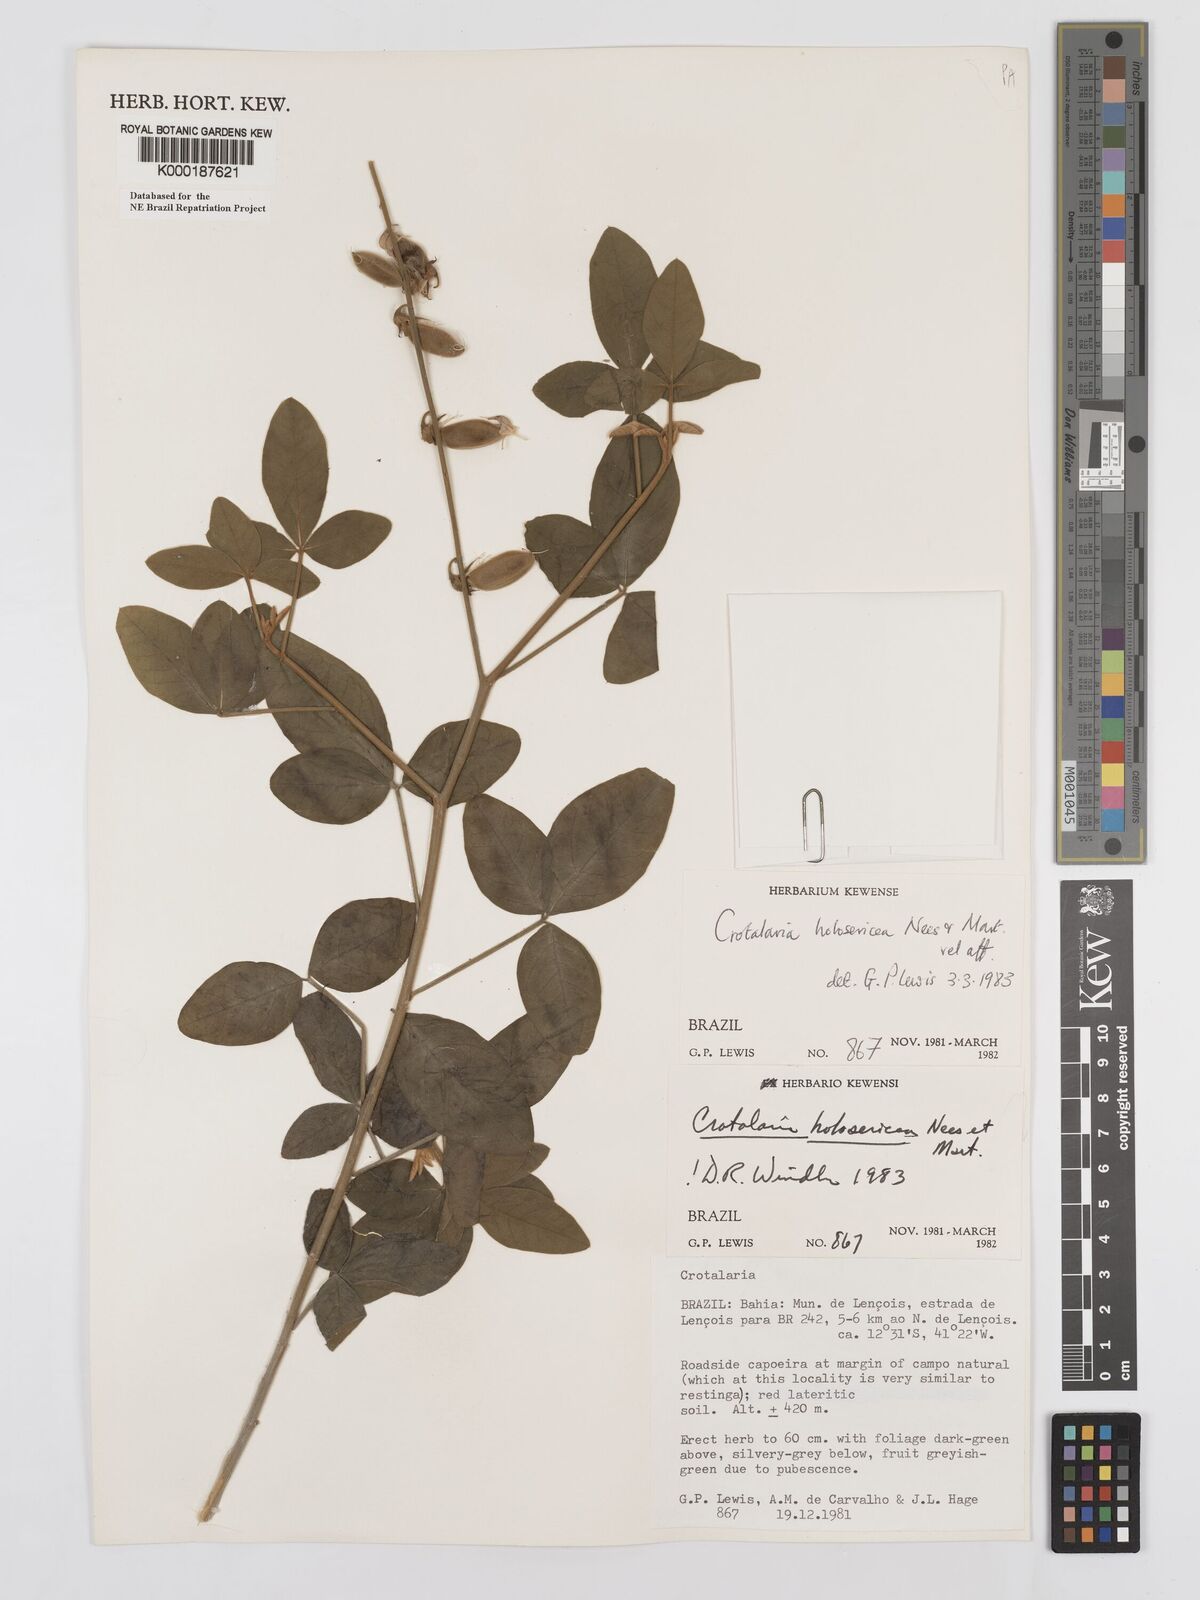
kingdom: Plantae
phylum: Tracheophyta
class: Magnoliopsida
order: Fabales
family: Fabaceae
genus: Crotalaria
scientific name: Crotalaria holosericea
